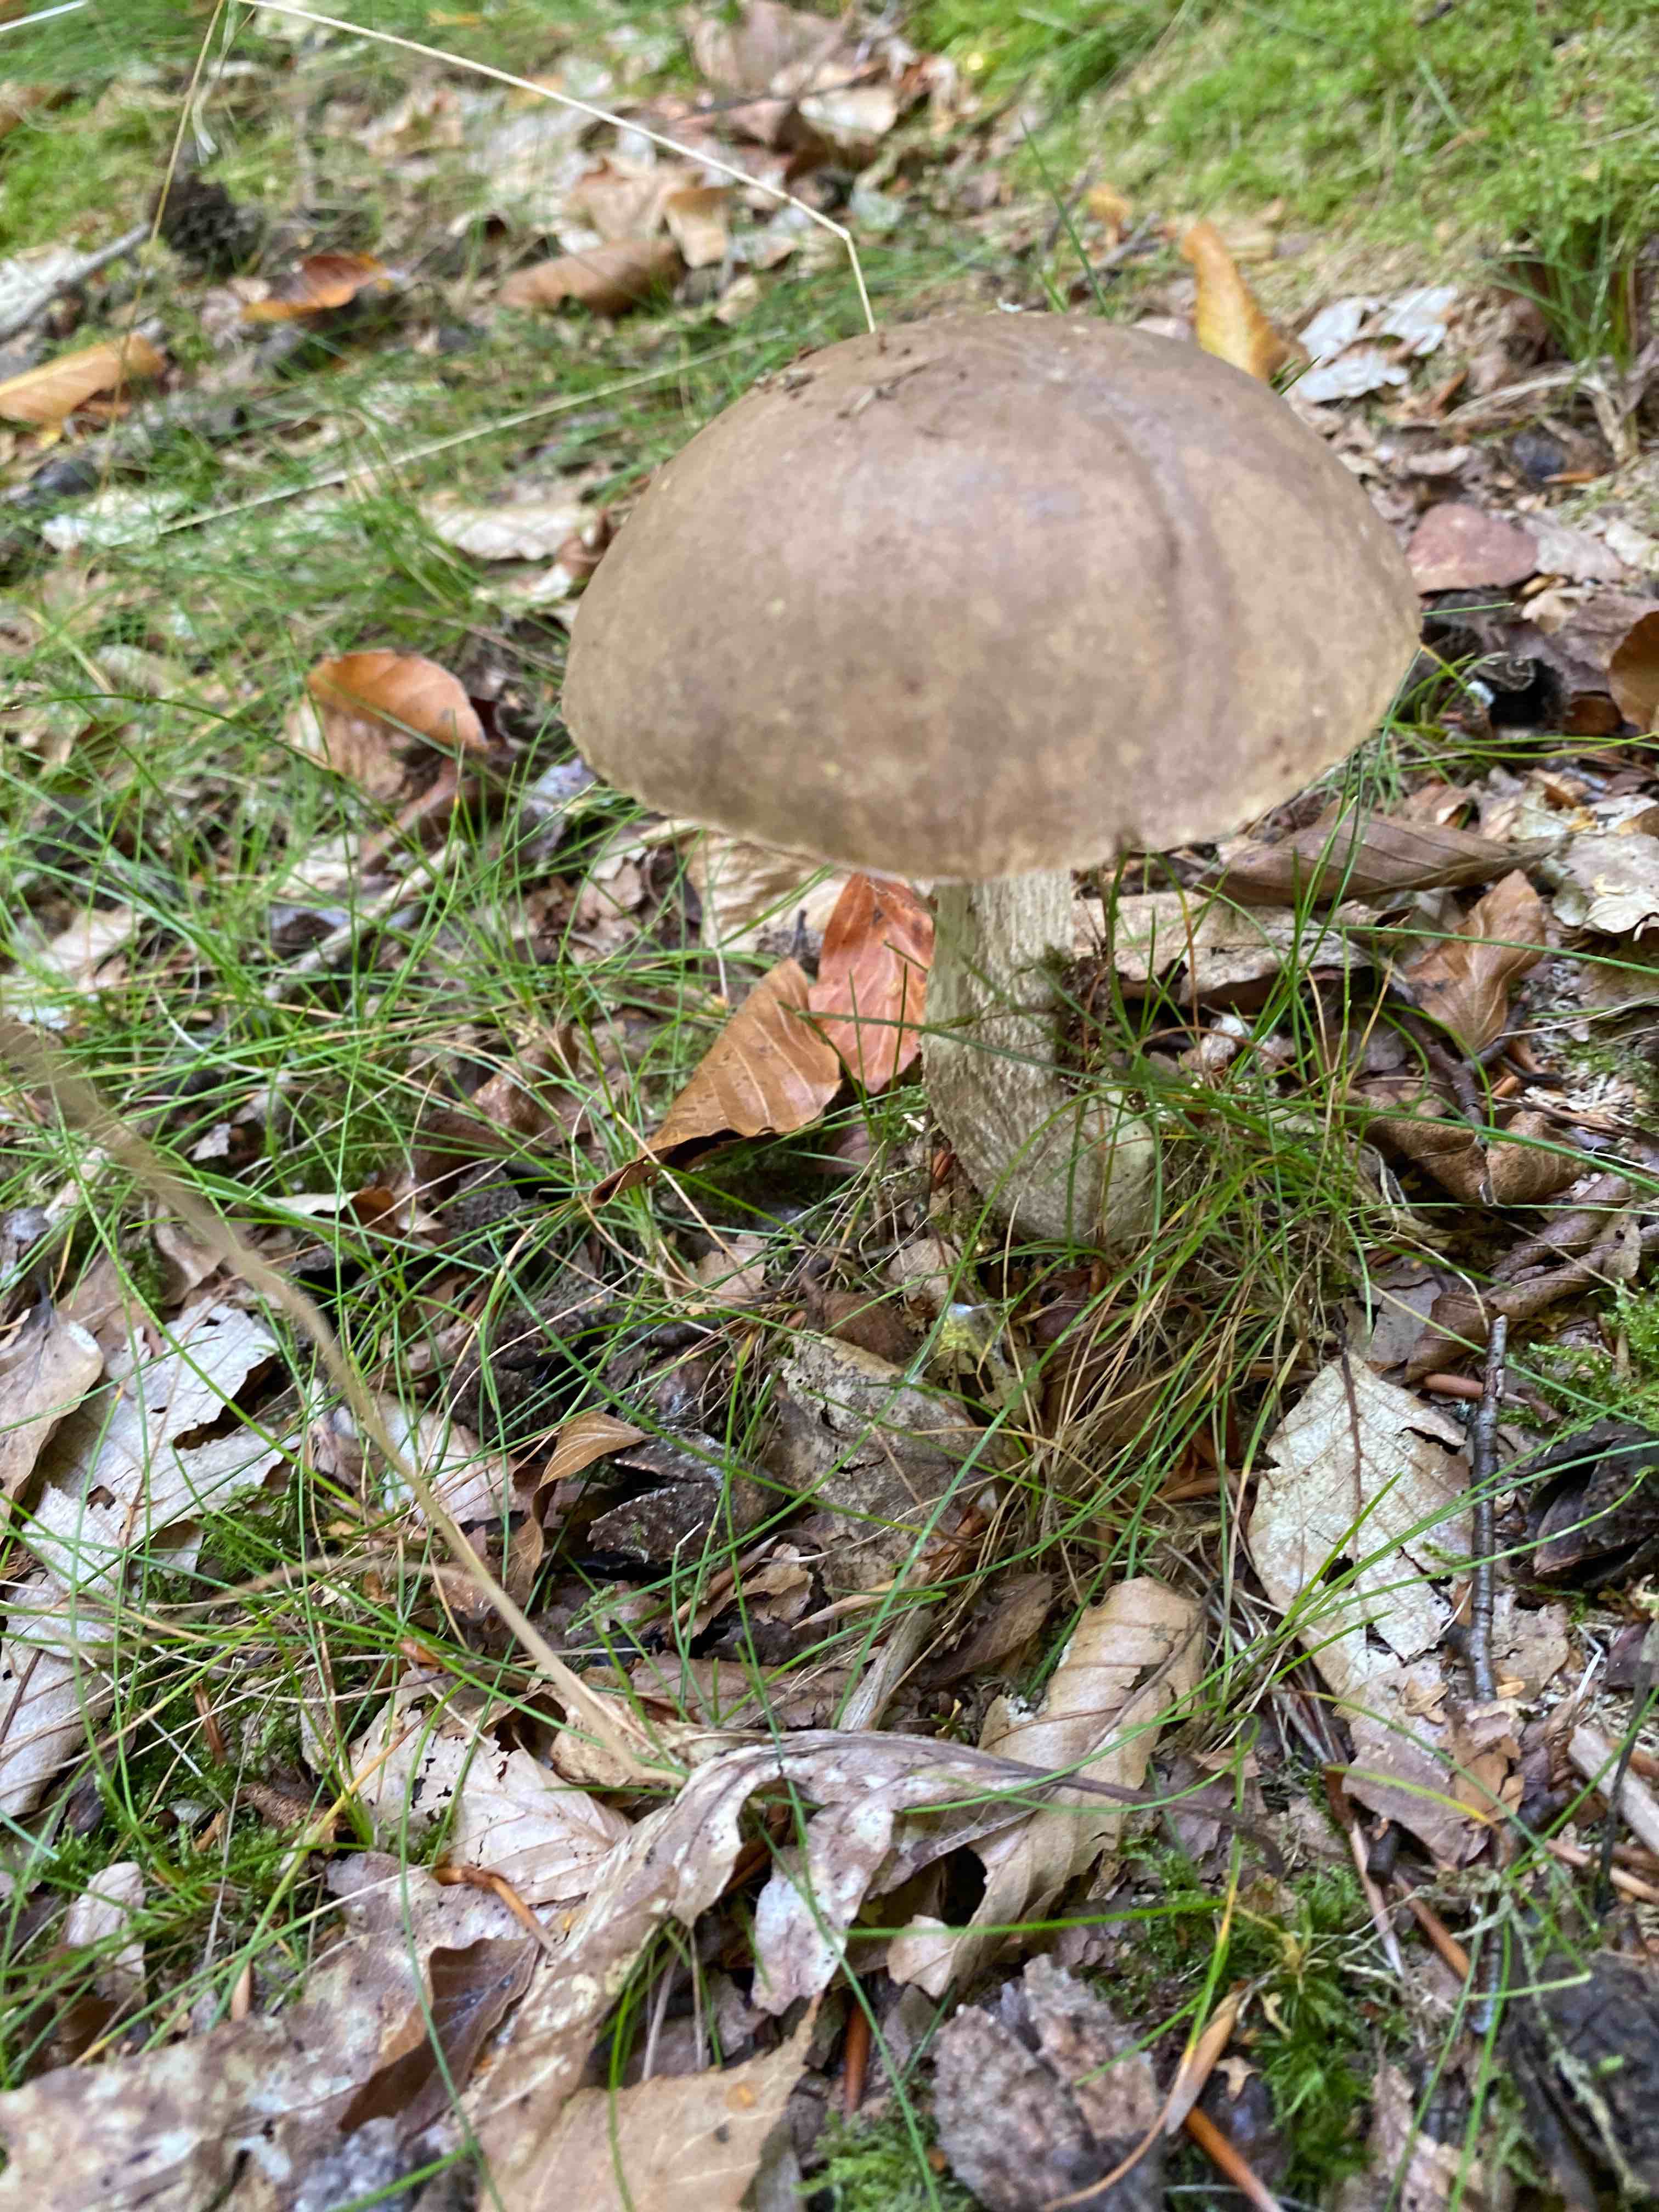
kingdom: Fungi
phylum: Basidiomycota
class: Agaricomycetes
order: Boletales
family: Boletaceae
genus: Leccinum
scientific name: Leccinum scabrum
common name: brun skælrørhat
